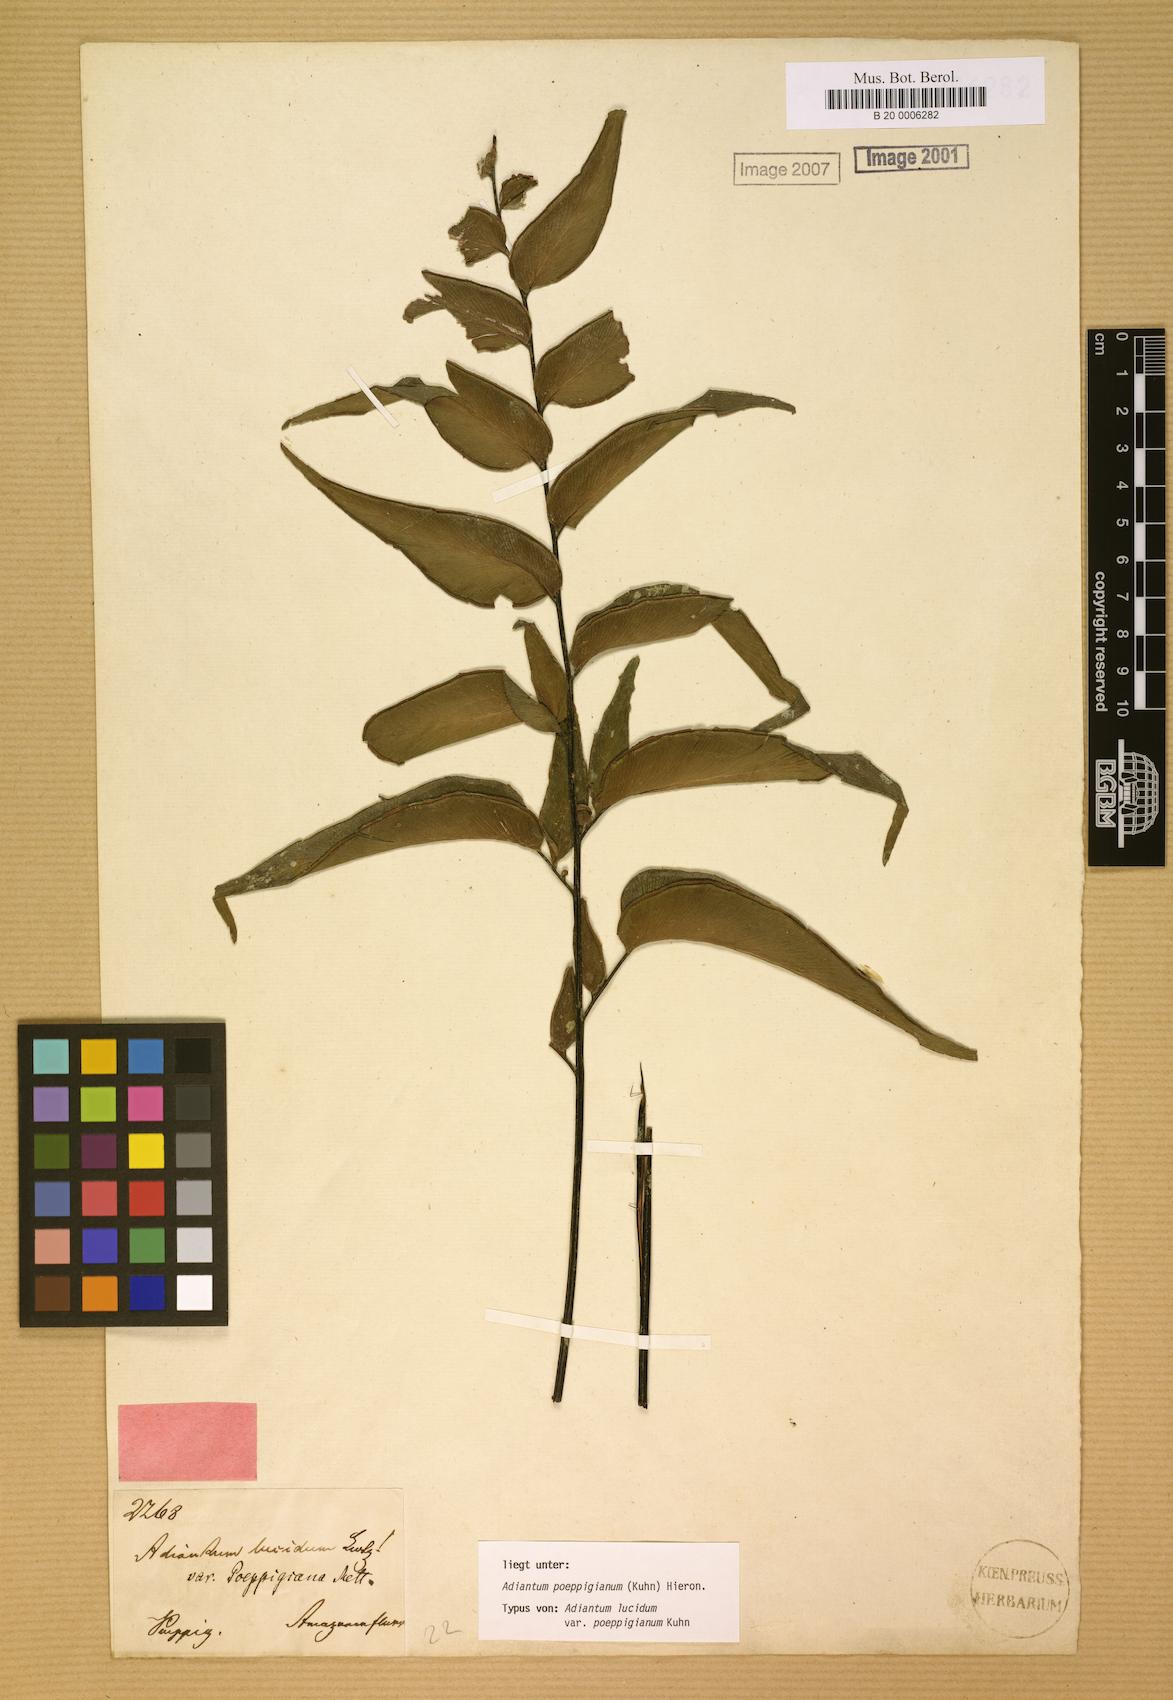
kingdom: Plantae
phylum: Tracheophyta
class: Polypodiopsida
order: Polypodiales
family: Pteridaceae
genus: Adiantum
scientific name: Adiantum poeppigianum
